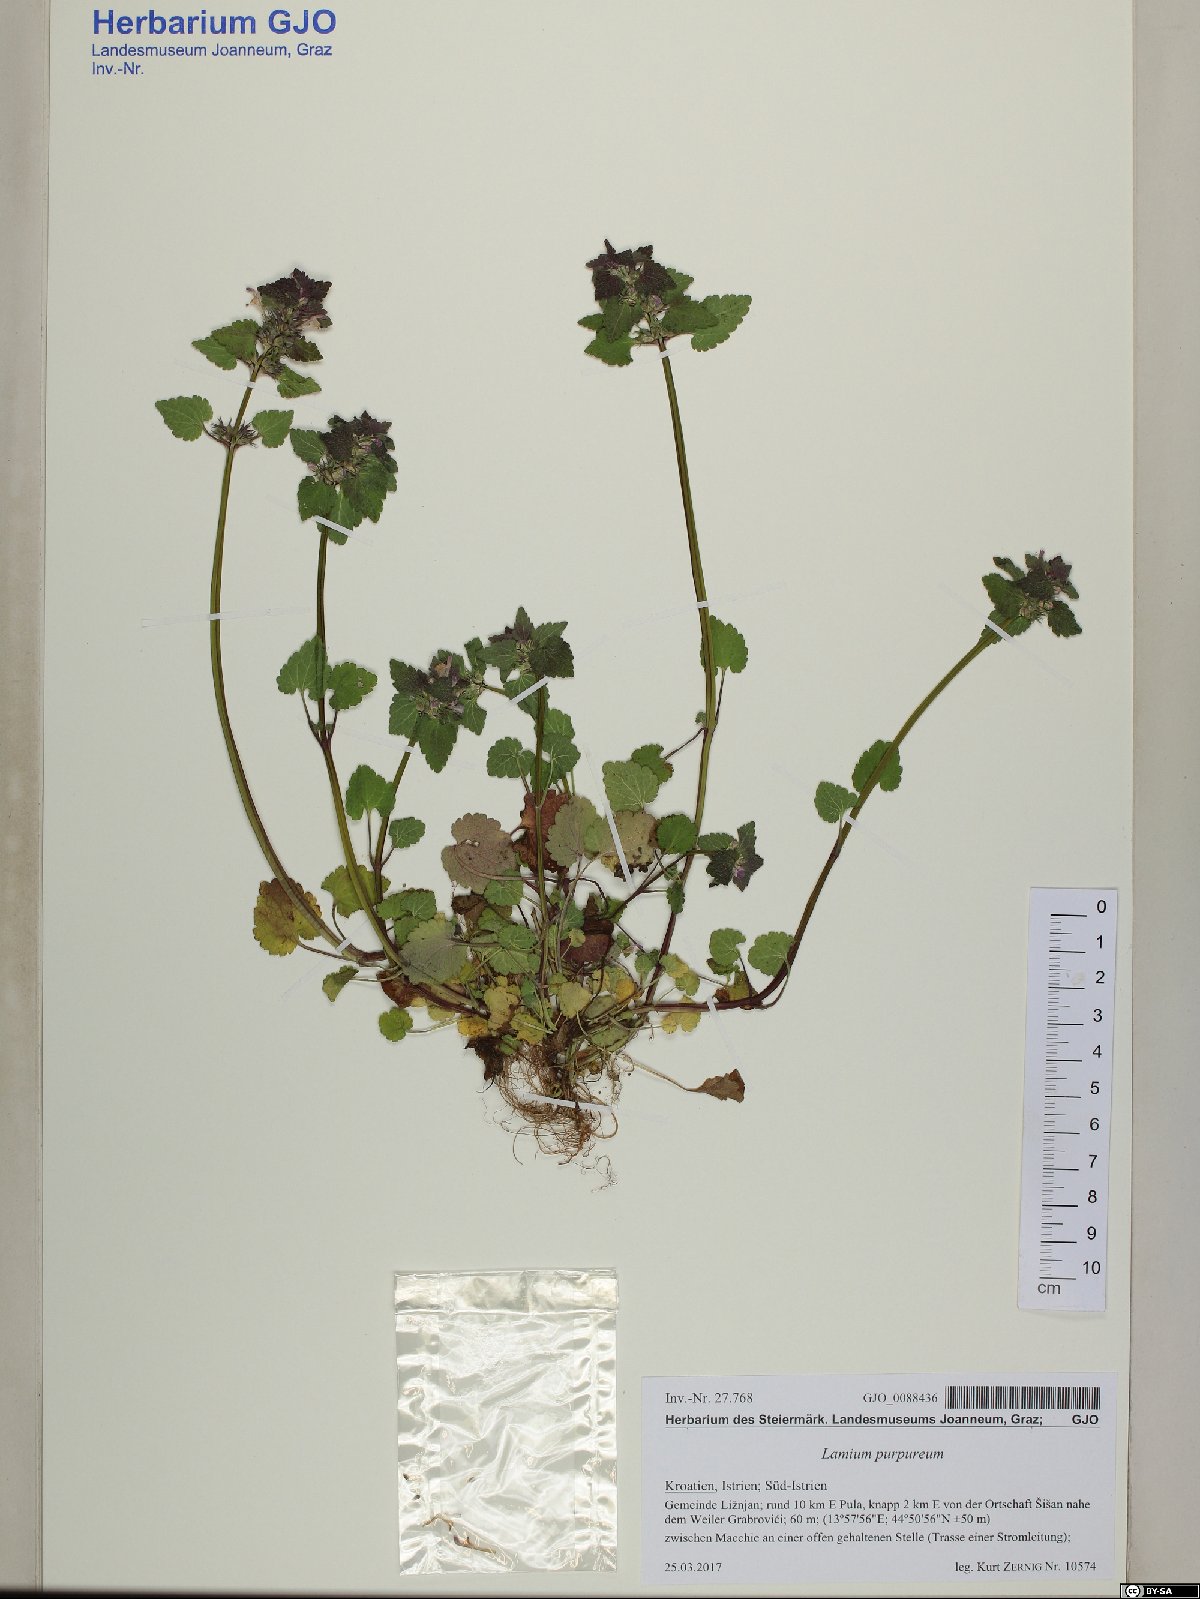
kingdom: Plantae
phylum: Tracheophyta
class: Magnoliopsida
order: Lamiales
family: Lamiaceae
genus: Lamium
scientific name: Lamium purpureum
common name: Red dead-nettle
